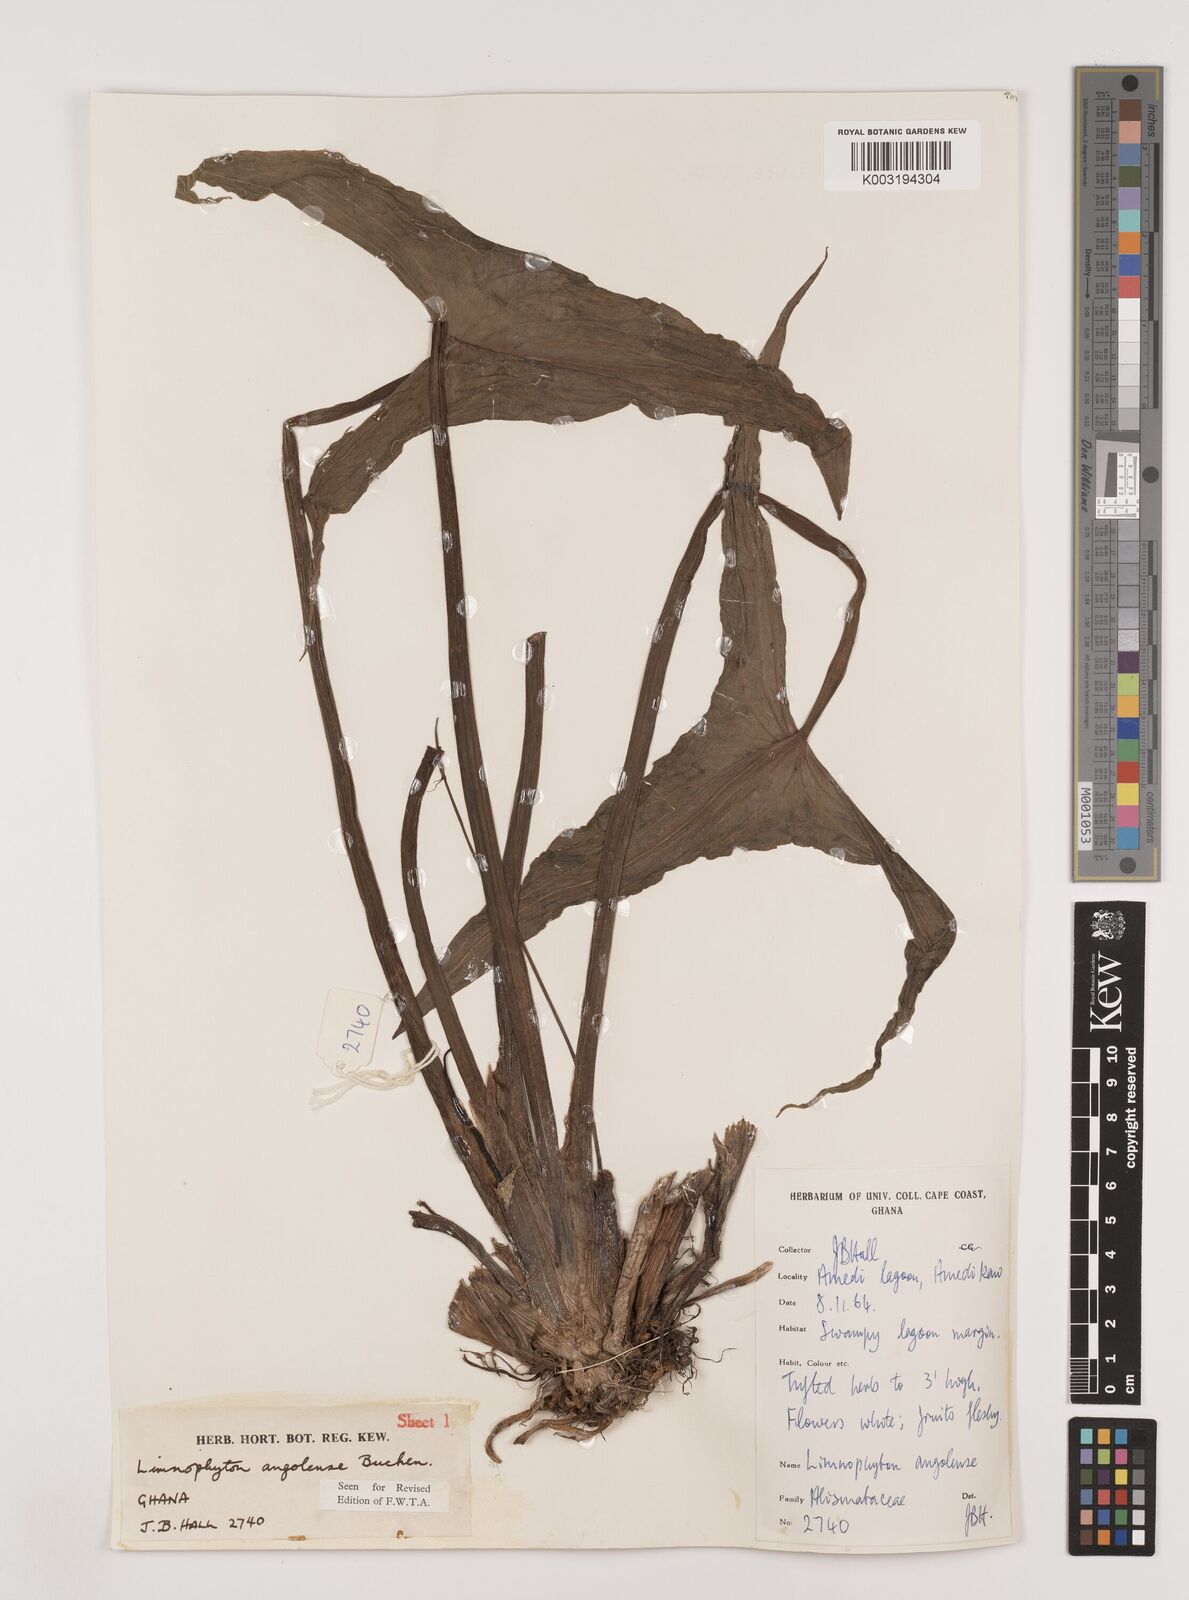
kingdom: Plantae
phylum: Tracheophyta
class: Liliopsida
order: Alismatales
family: Alismataceae
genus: Limnophyton
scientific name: Limnophyton angolense
